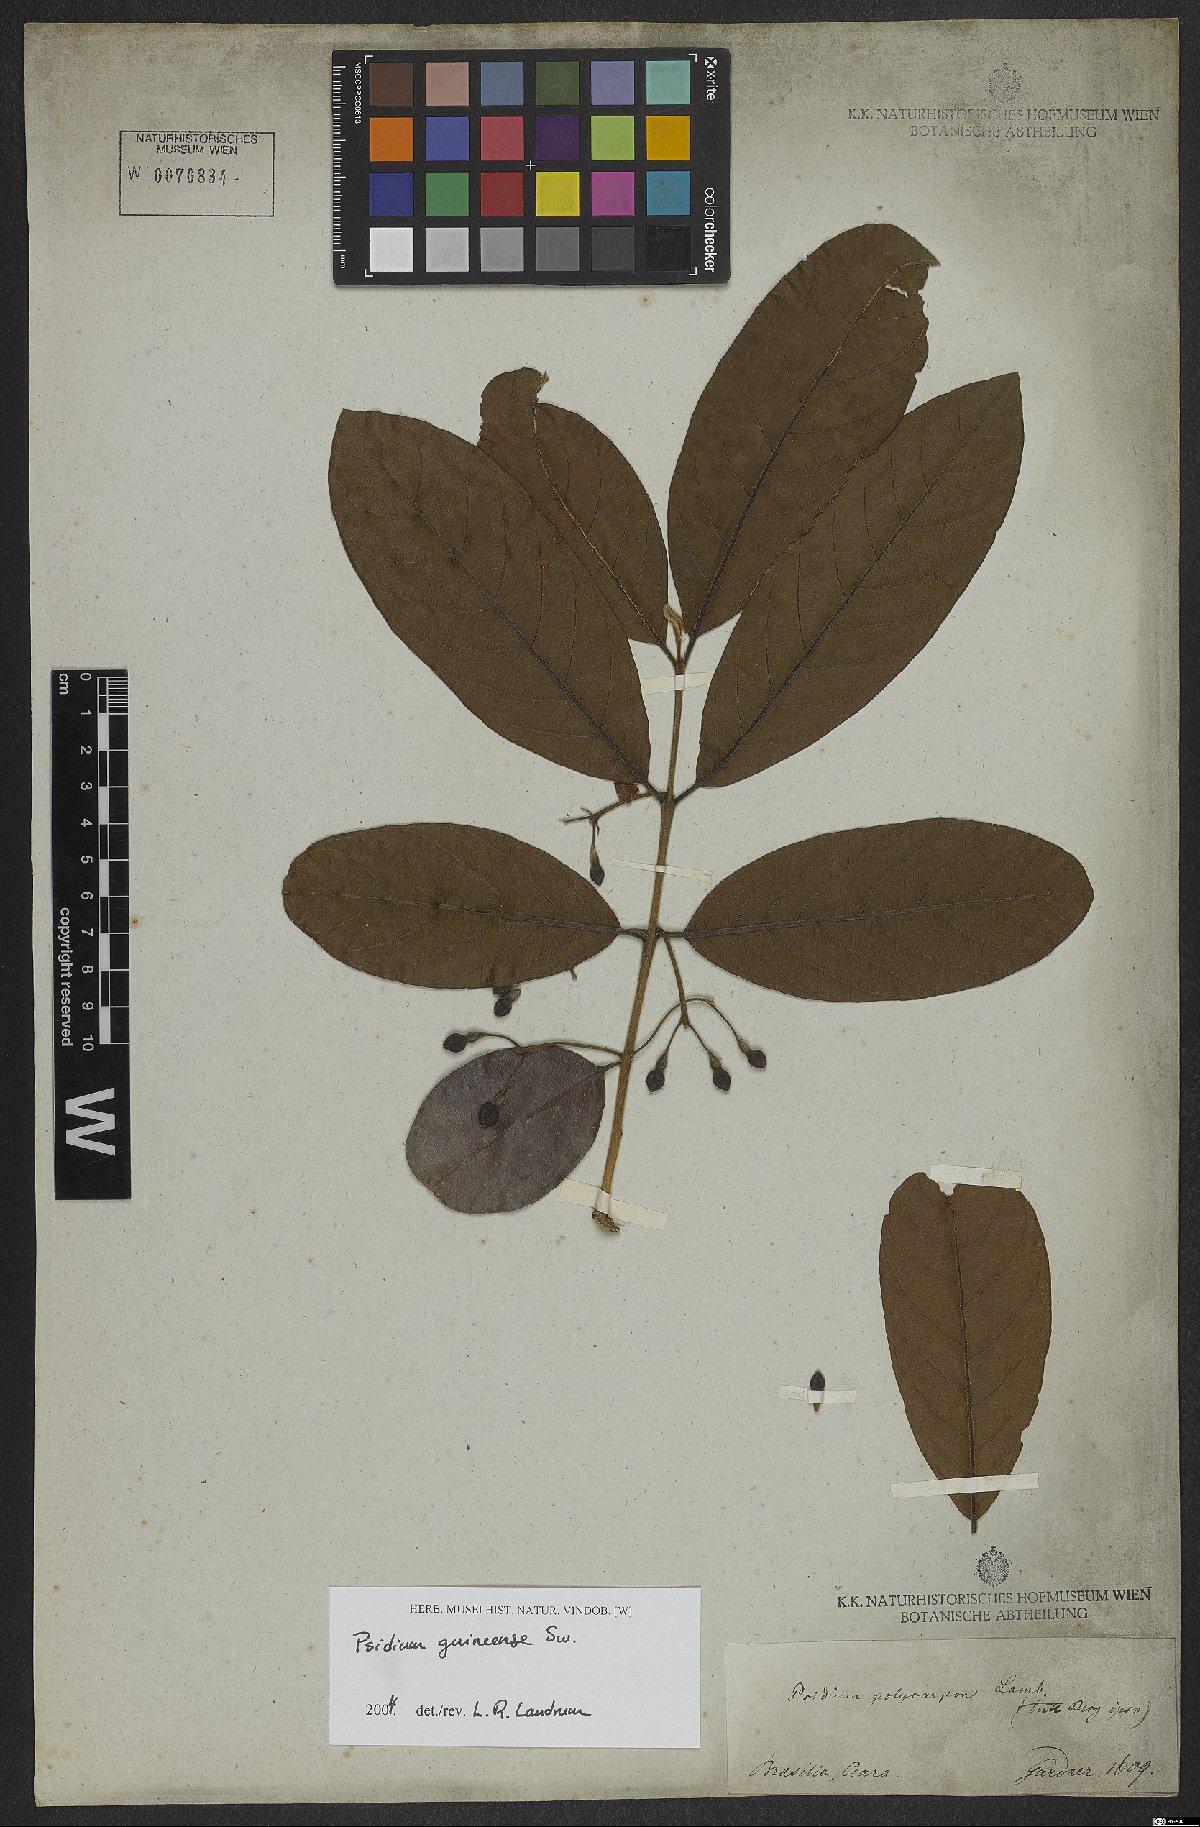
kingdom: Plantae
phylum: Tracheophyta
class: Magnoliopsida
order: Myrtales
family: Myrtaceae
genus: Psidium
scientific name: Psidium guineense
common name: Brazilian guava
